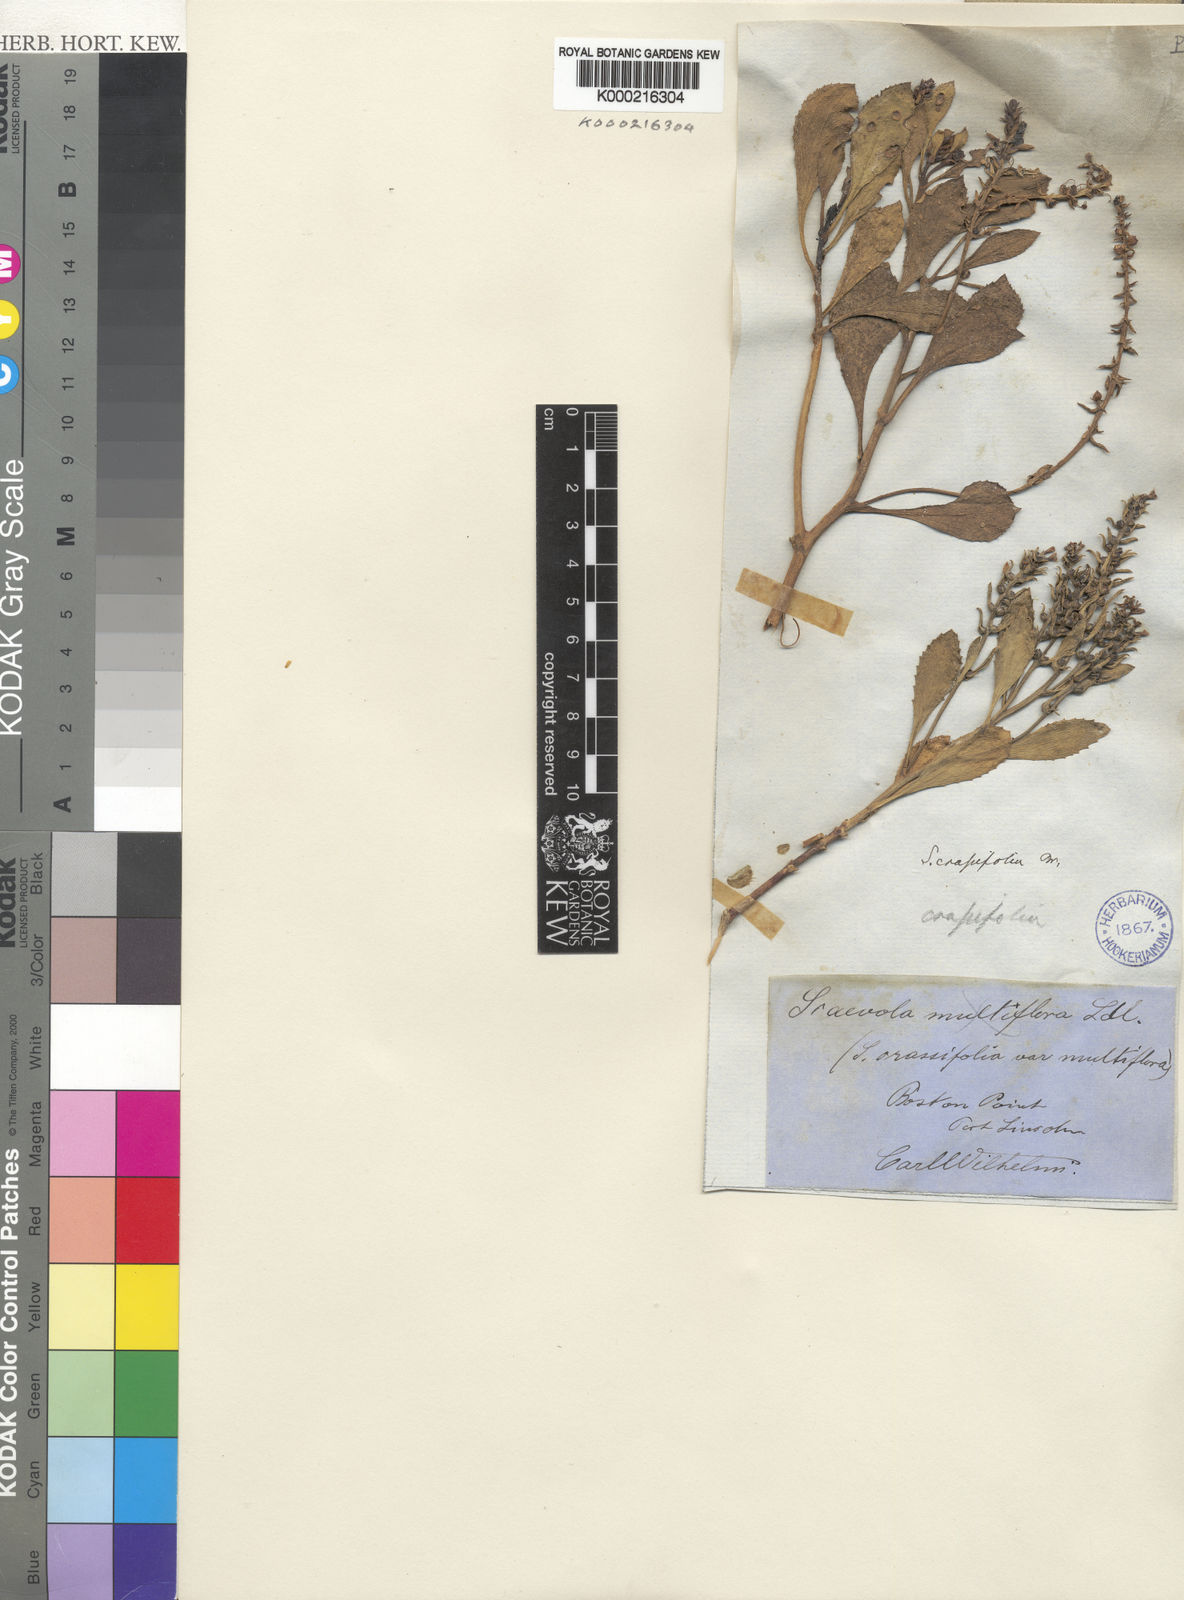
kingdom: Plantae
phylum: Tracheophyta
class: Magnoliopsida
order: Asterales
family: Goodeniaceae
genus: Scaevola
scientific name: Scaevola nitida
